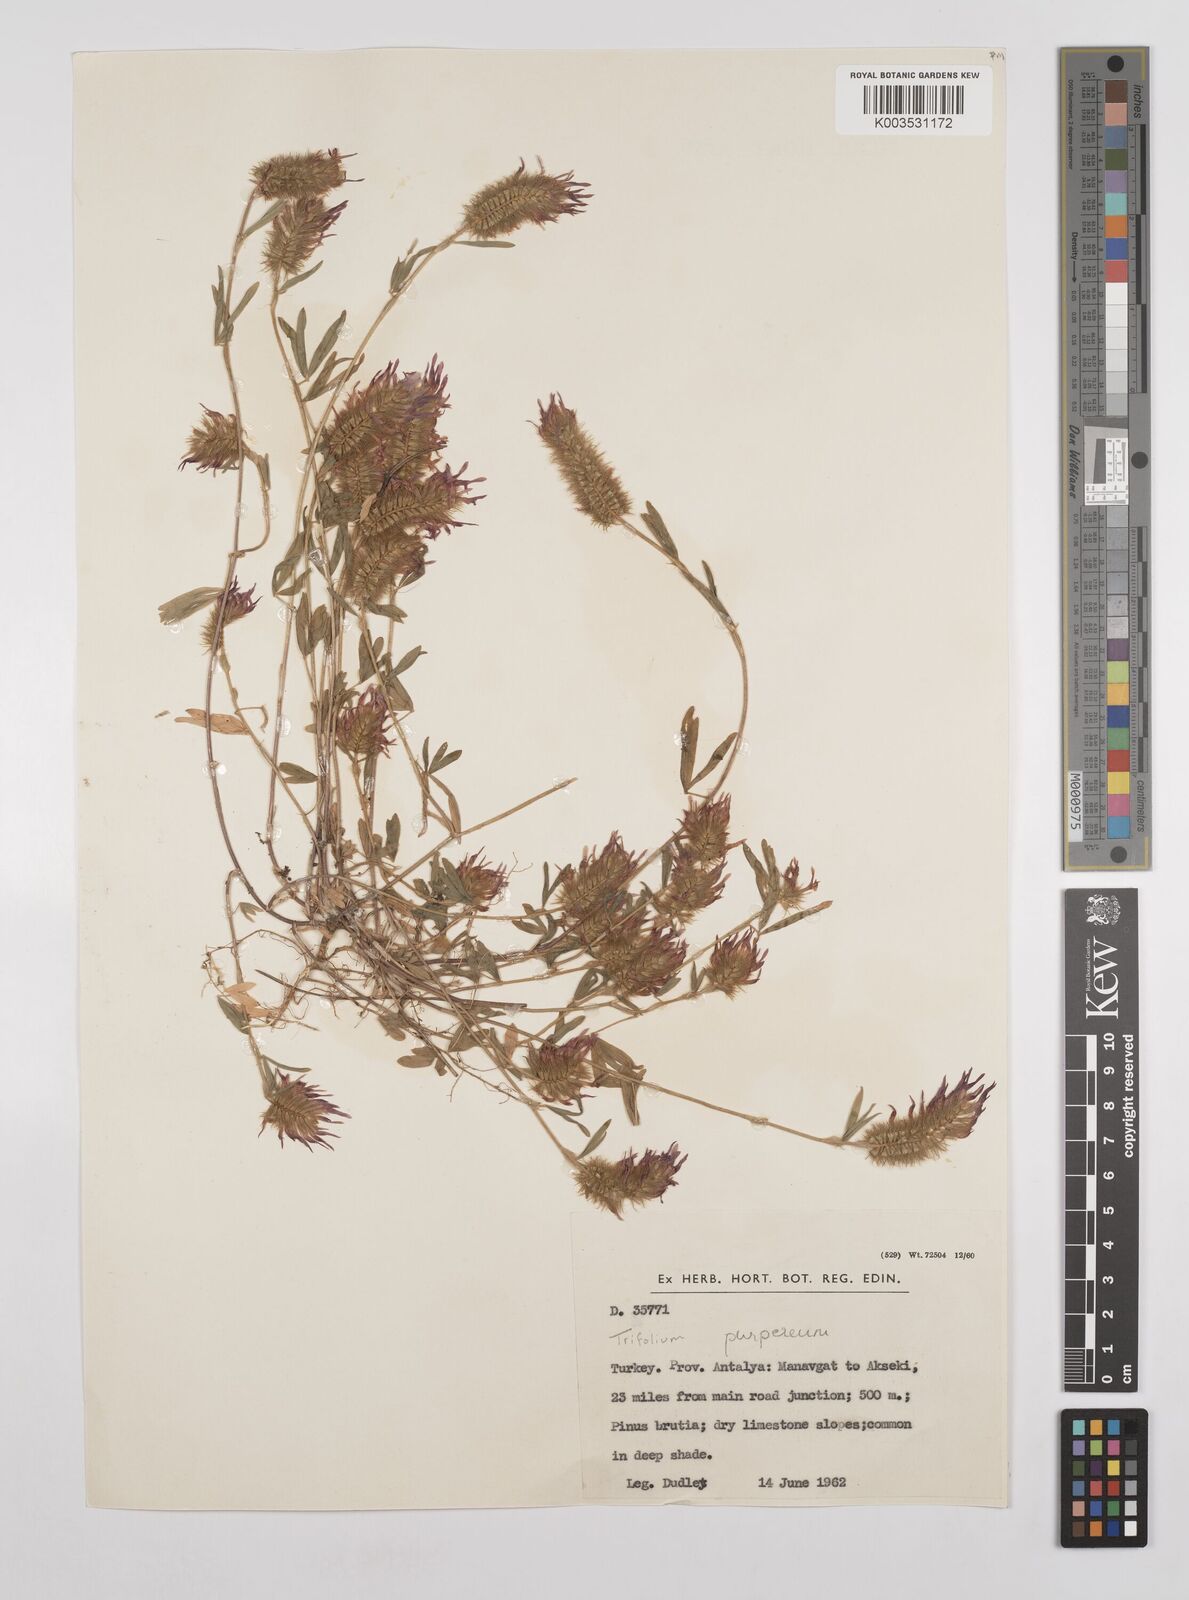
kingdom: Plantae
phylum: Tracheophyta
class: Magnoliopsida
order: Fabales
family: Fabaceae
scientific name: Fabaceae
